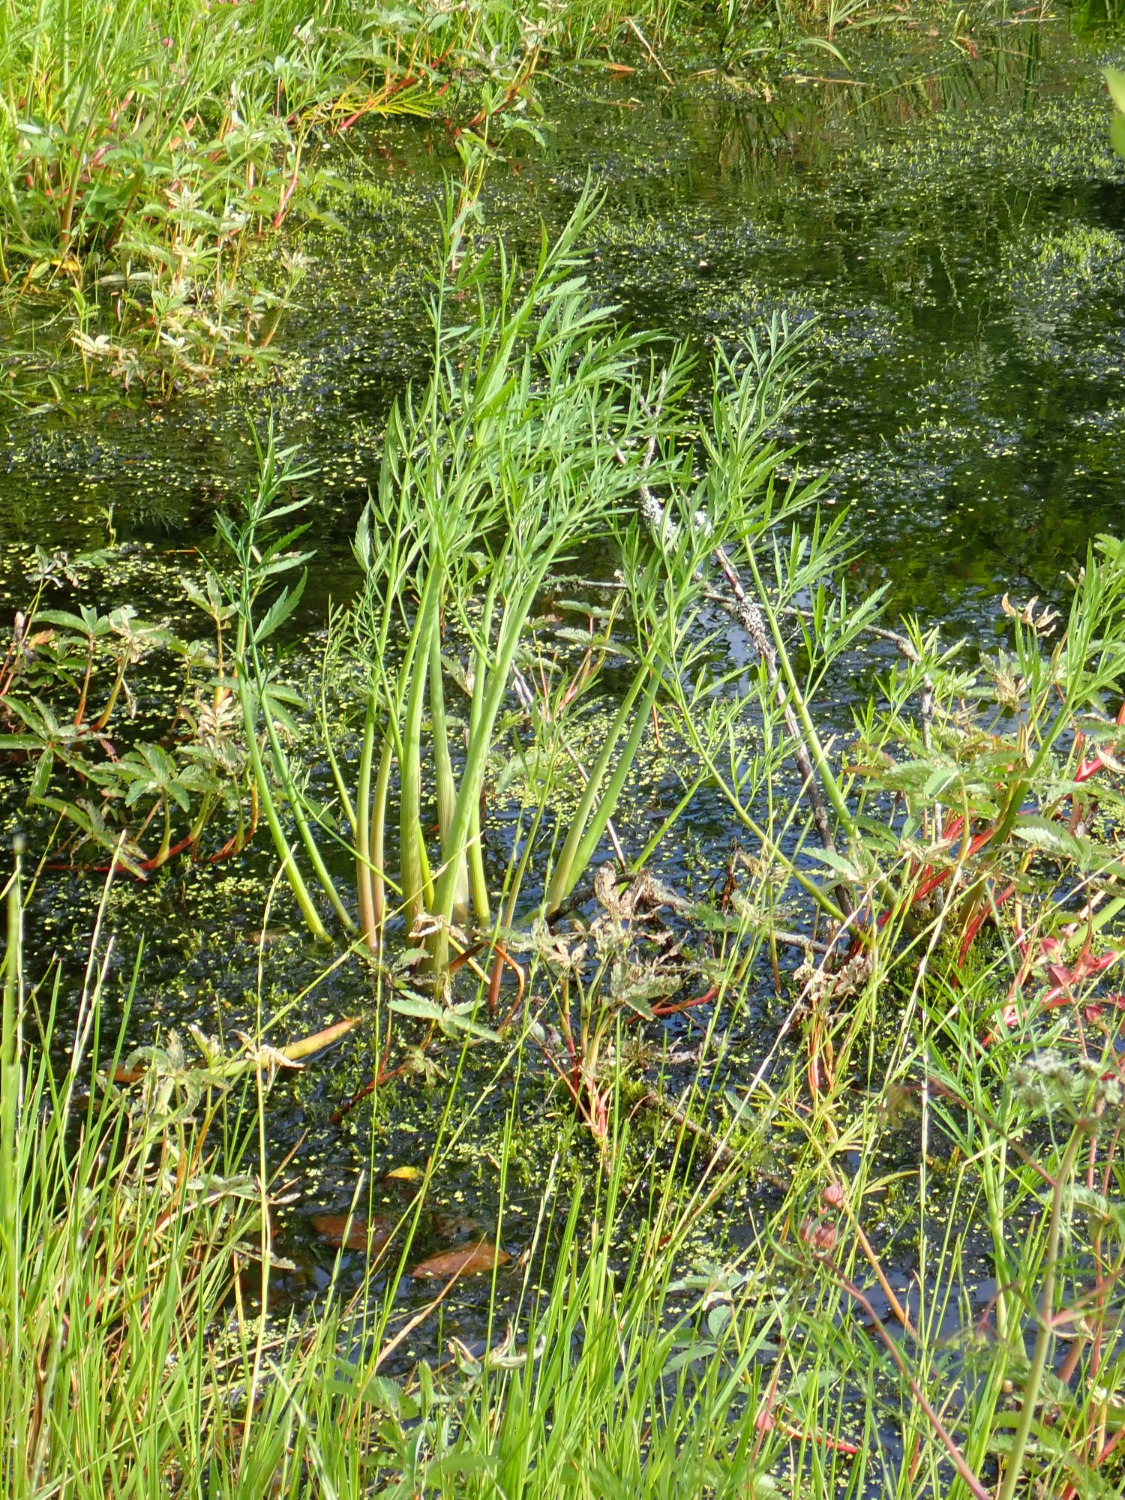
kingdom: Plantae
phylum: Tracheophyta
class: Magnoliopsida
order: Apiales
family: Apiaceae
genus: Cicuta
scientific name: Cicuta virosa
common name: Gifttyde
